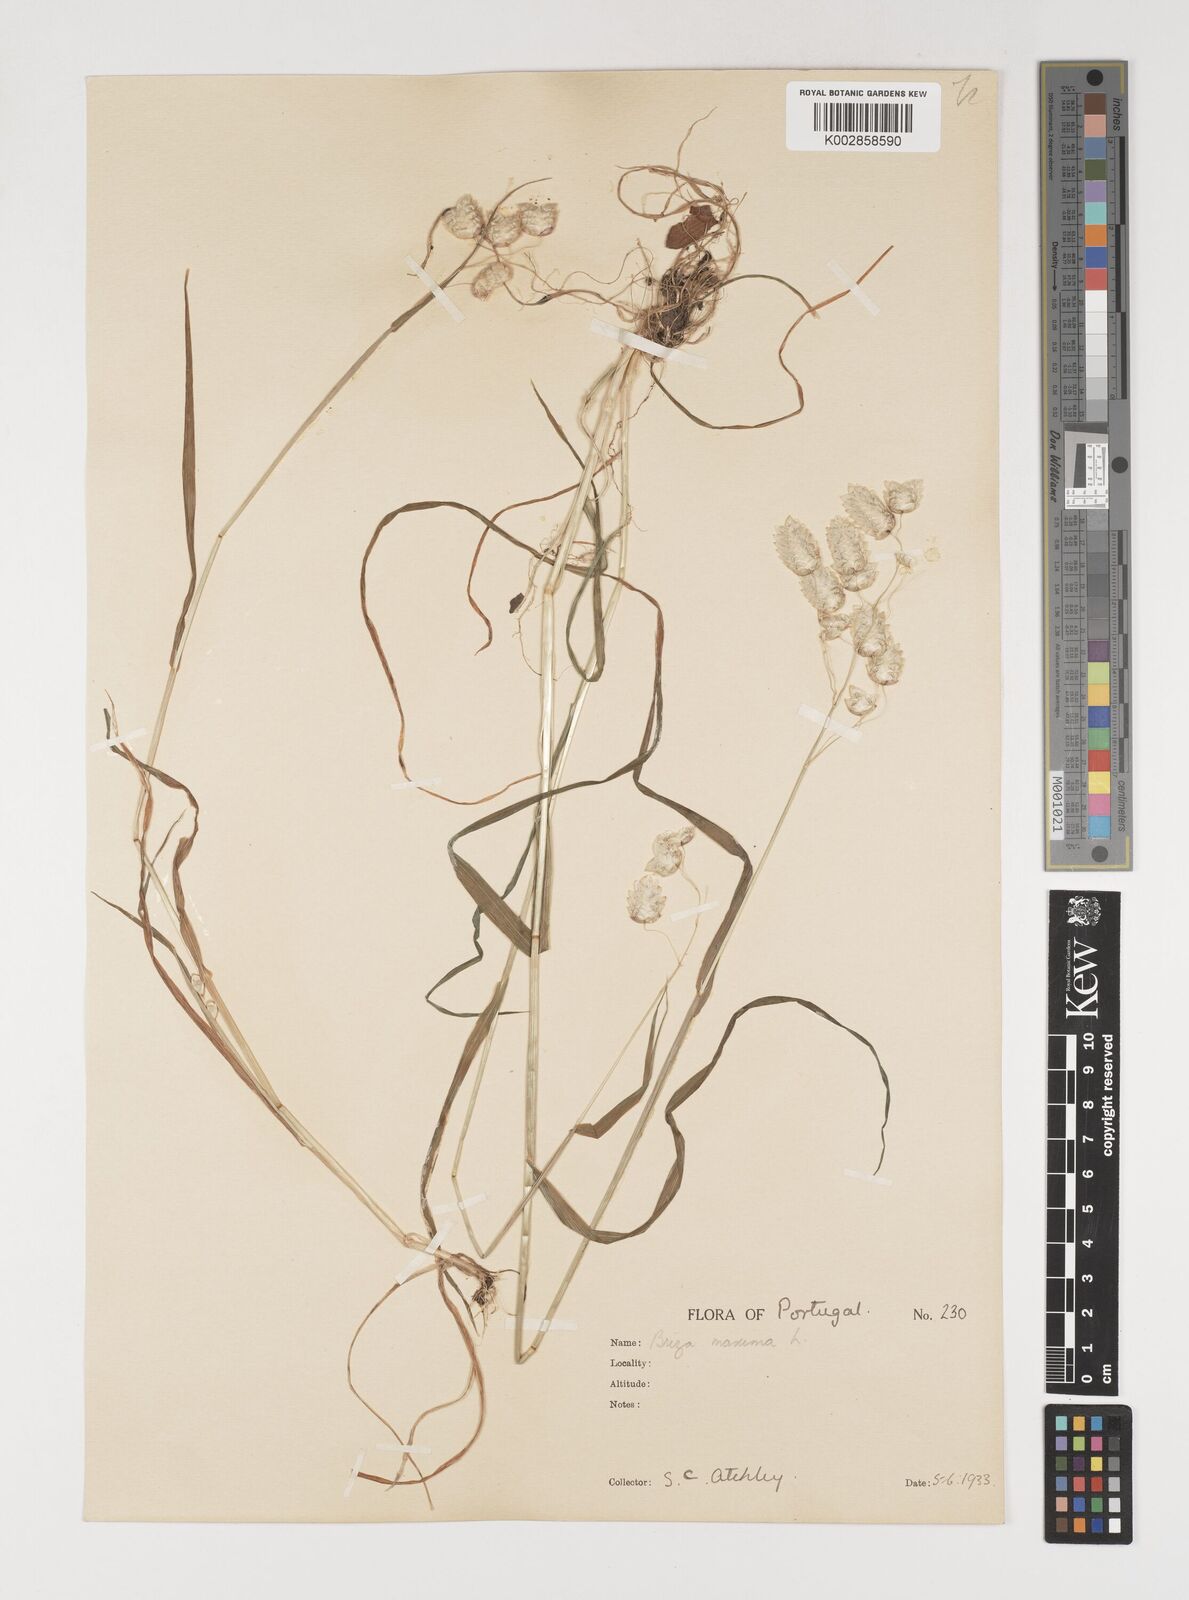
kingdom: Plantae
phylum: Tracheophyta
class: Liliopsida
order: Poales
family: Poaceae
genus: Briza
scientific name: Briza maxima
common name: Big quakinggrass
